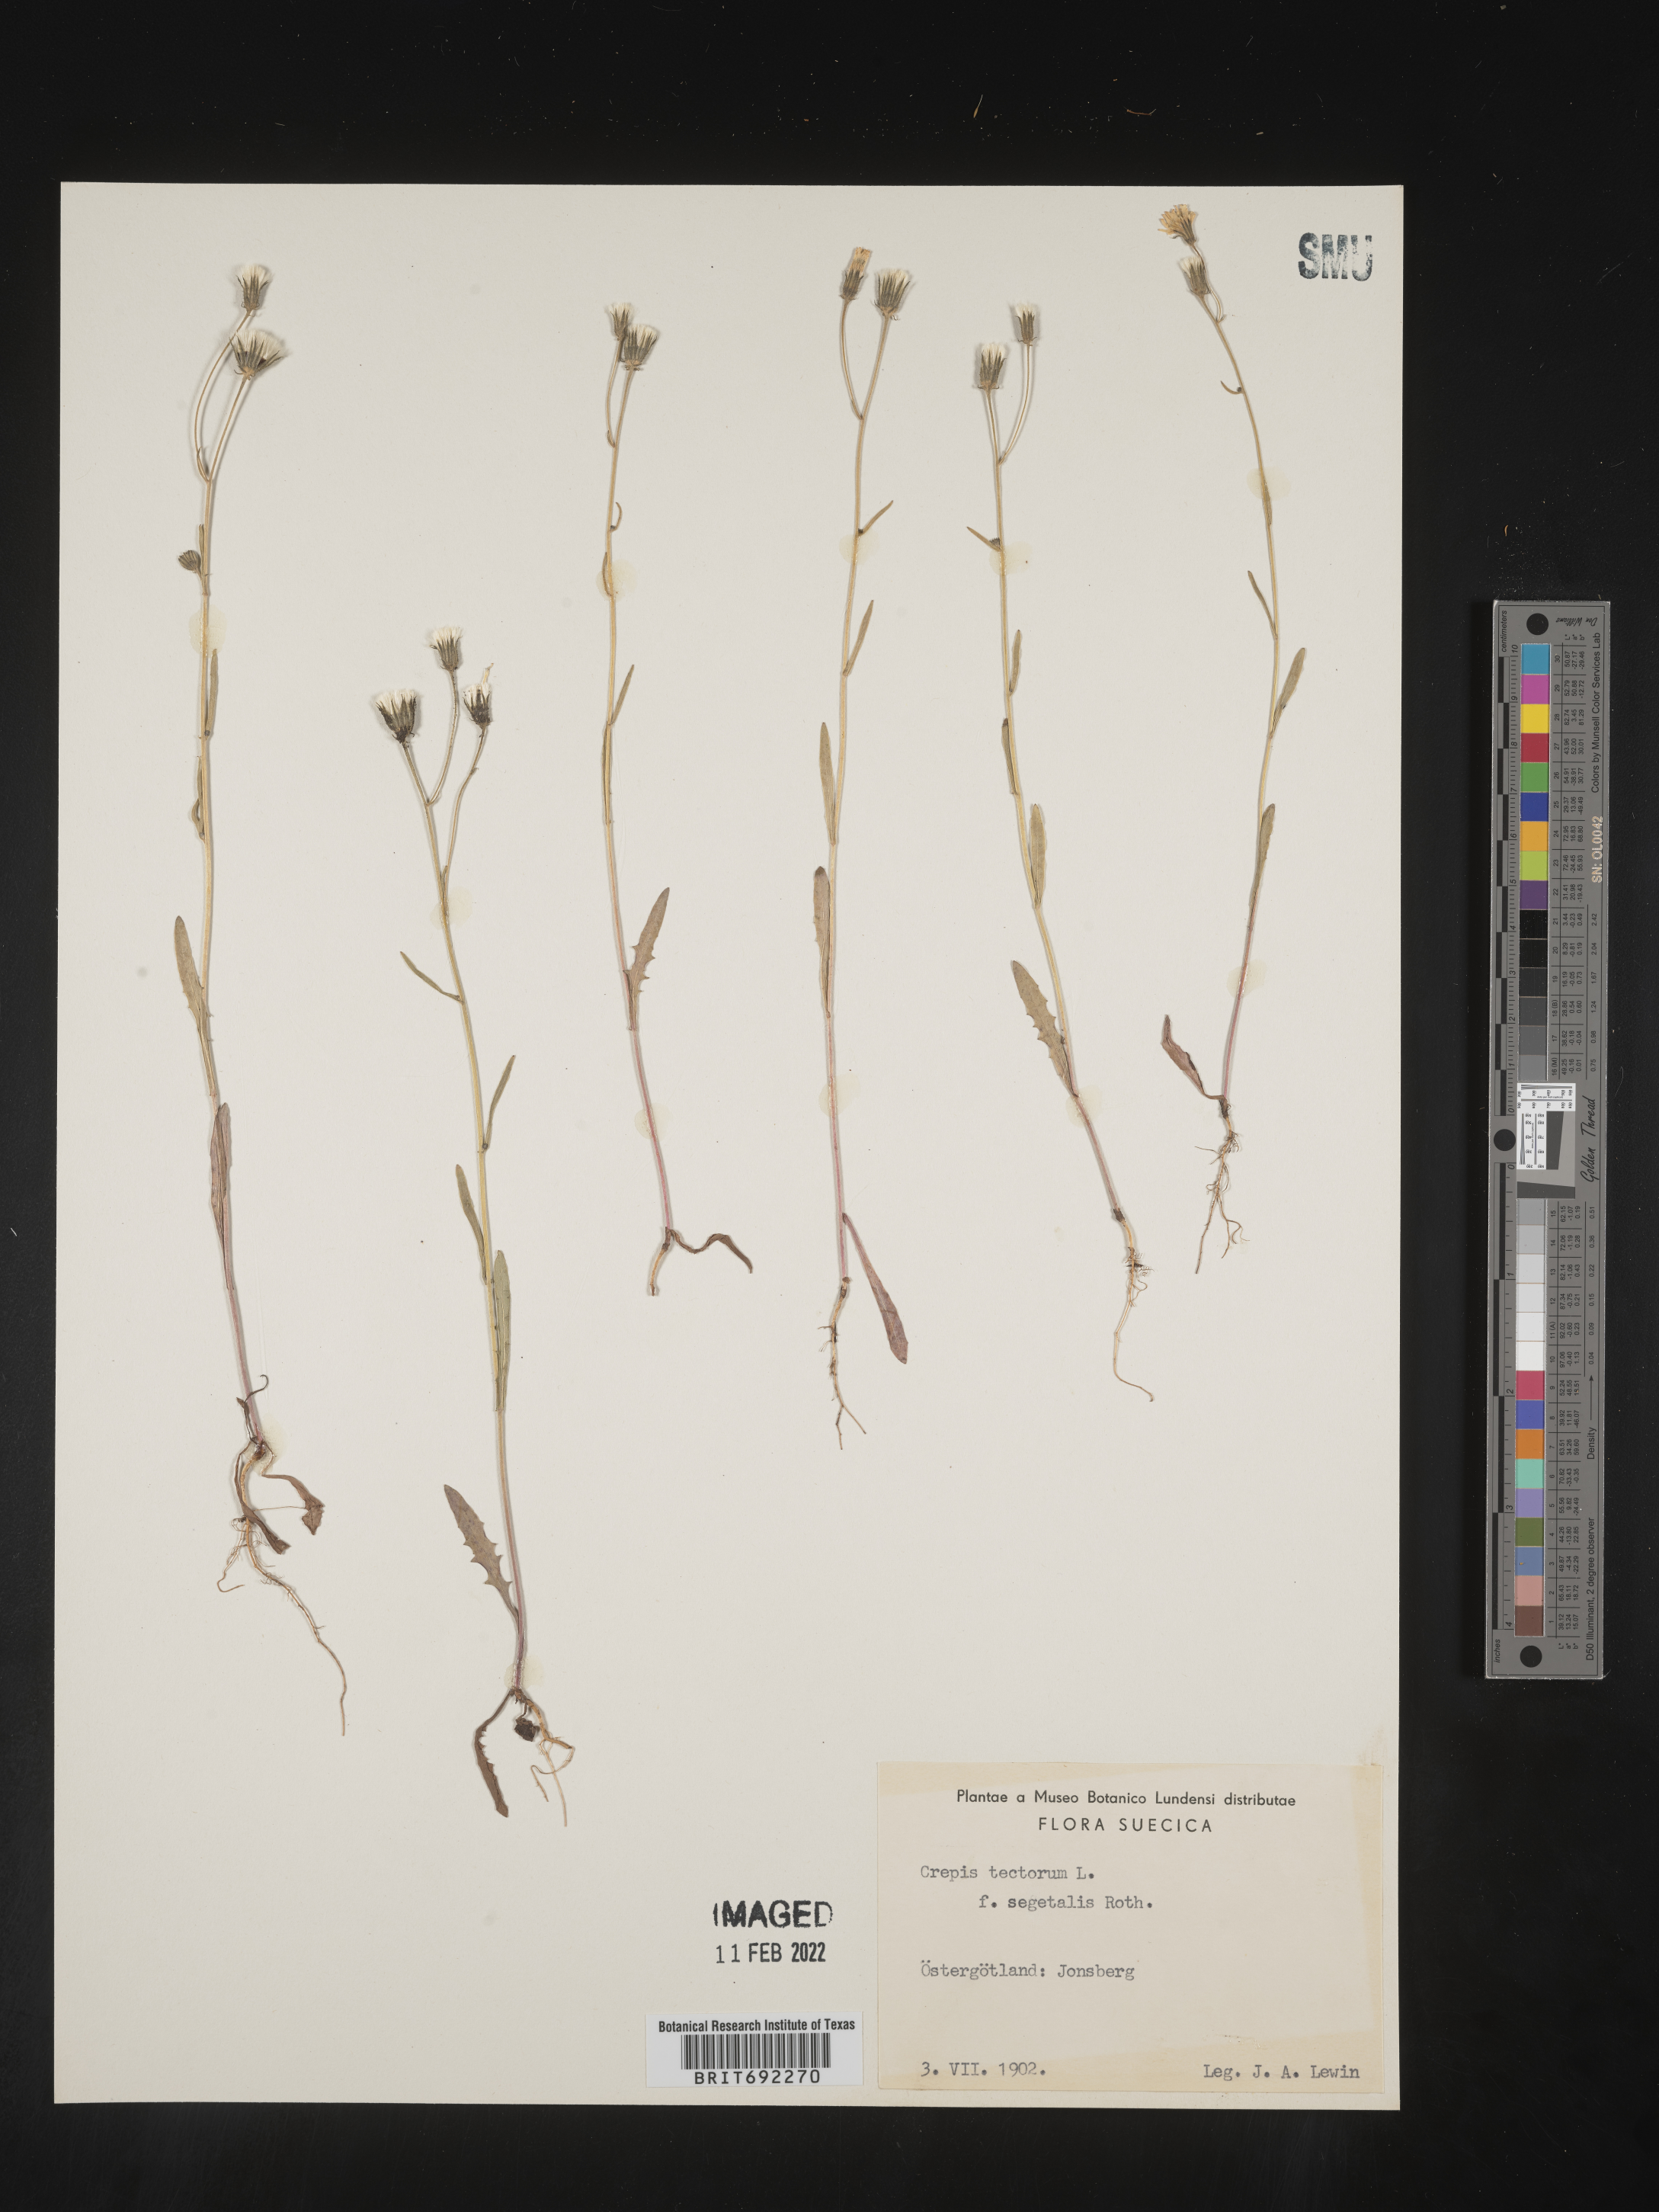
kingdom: Plantae
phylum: Tracheophyta
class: Magnoliopsida
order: Asterales
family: Asteraceae
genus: Crepis
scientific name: Crepis
